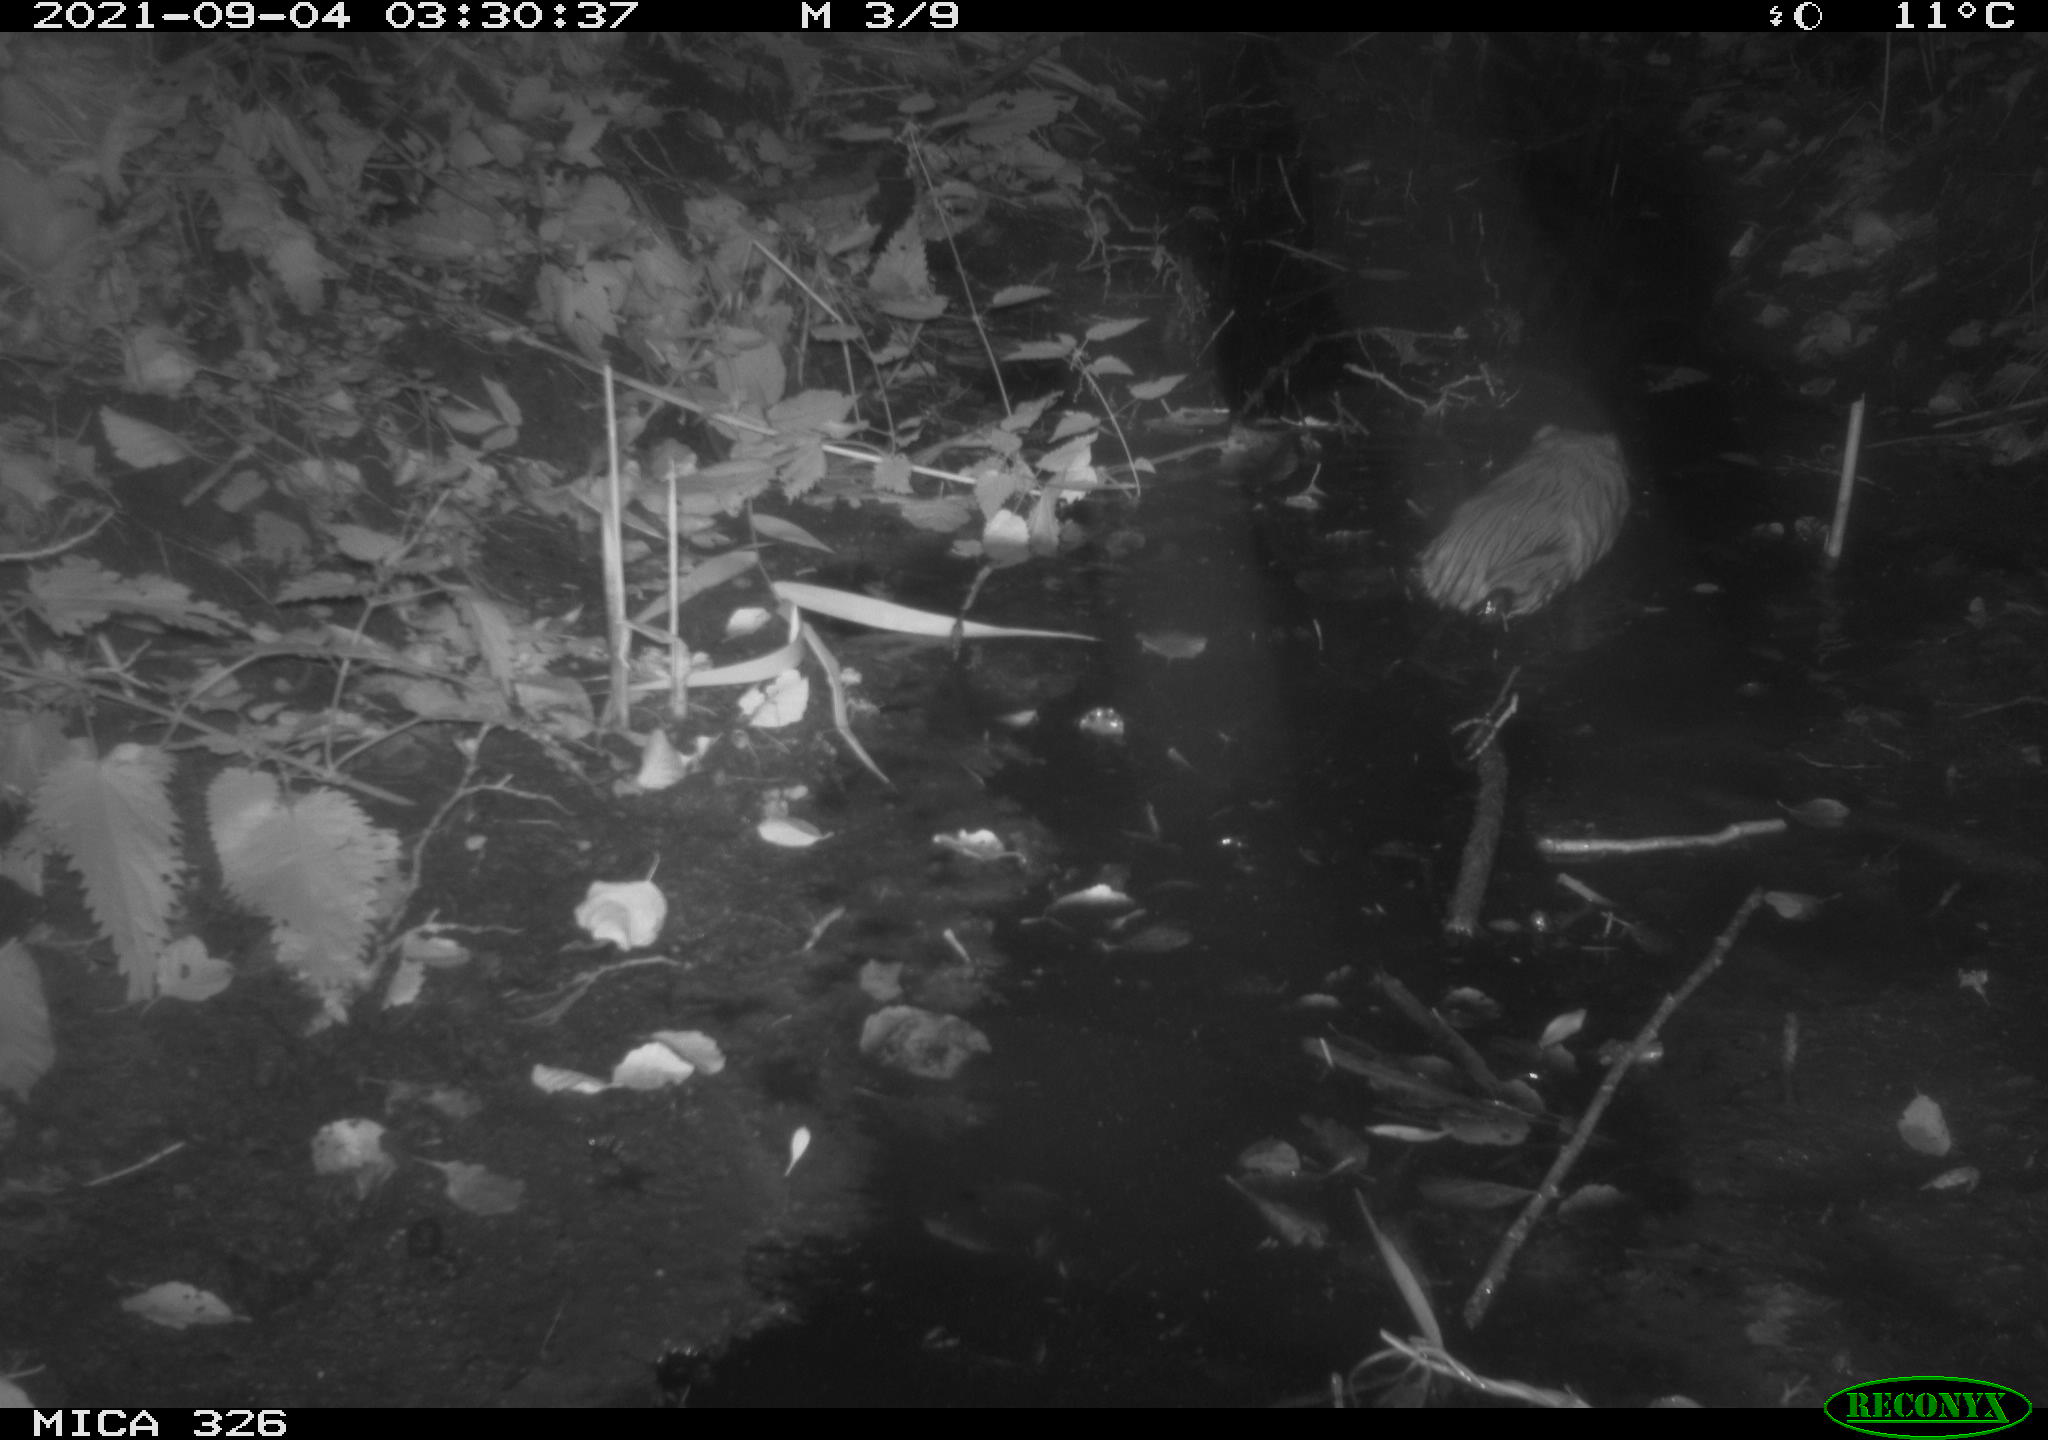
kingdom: Animalia
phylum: Chordata
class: Mammalia
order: Rodentia
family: Cricetidae
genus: Ondatra
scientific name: Ondatra zibethicus
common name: Muskrat
